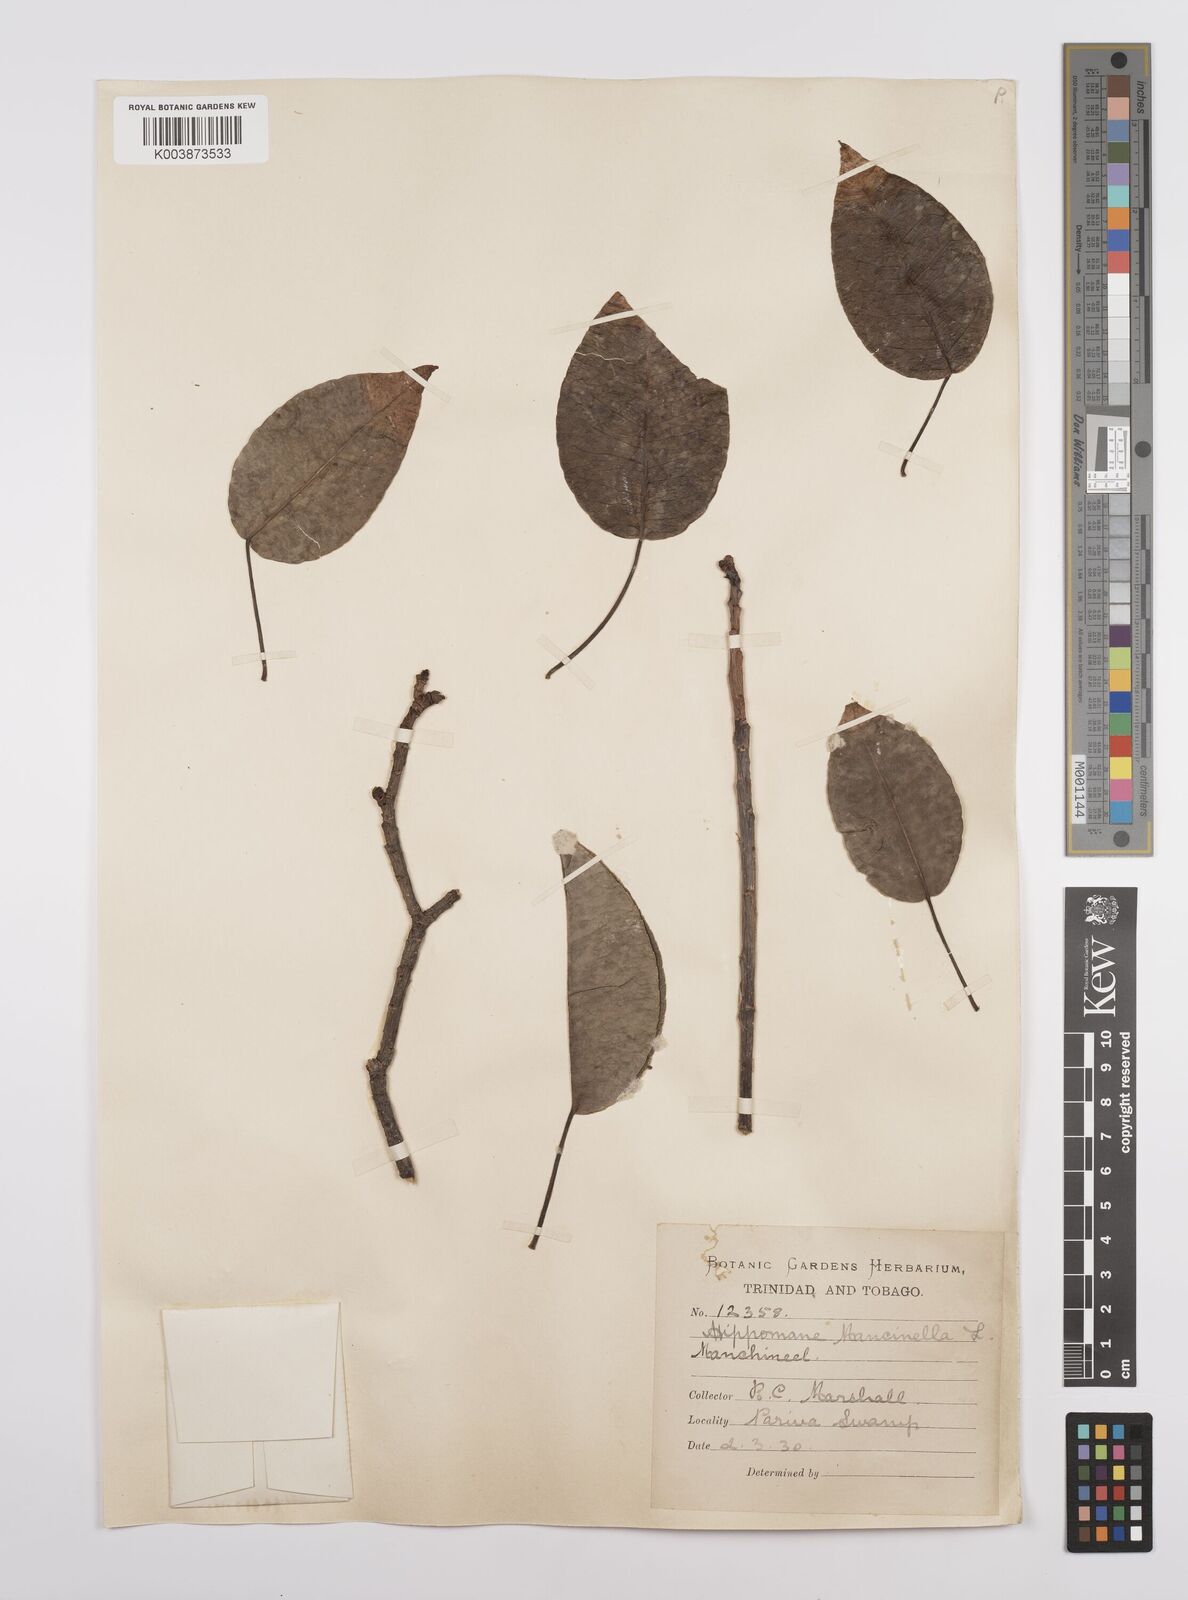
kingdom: Plantae
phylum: Tracheophyta
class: Magnoliopsida
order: Malpighiales
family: Euphorbiaceae
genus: Hippomane
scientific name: Hippomane mancinella
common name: Manchineel
